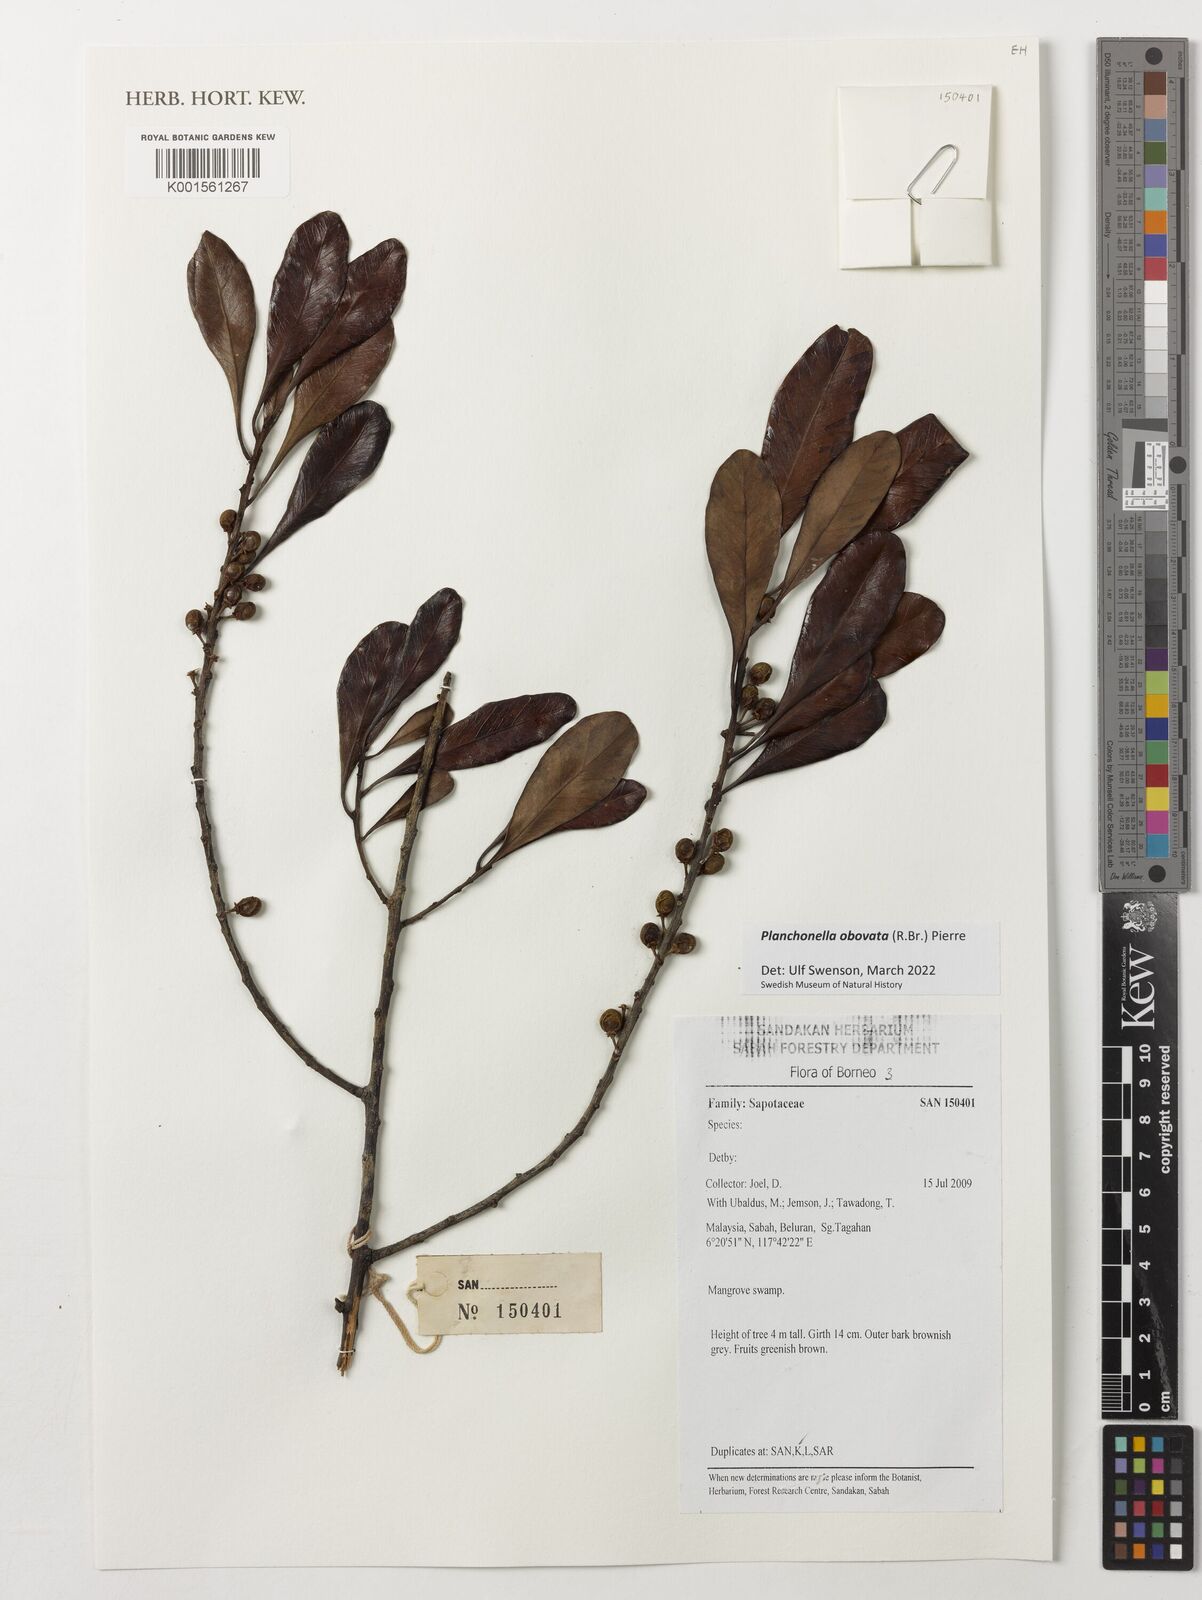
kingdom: Plantae
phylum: Tracheophyta
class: Magnoliopsida
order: Ericales
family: Sapotaceae
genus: Planchonella
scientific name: Planchonella obovata
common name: Black-ash
